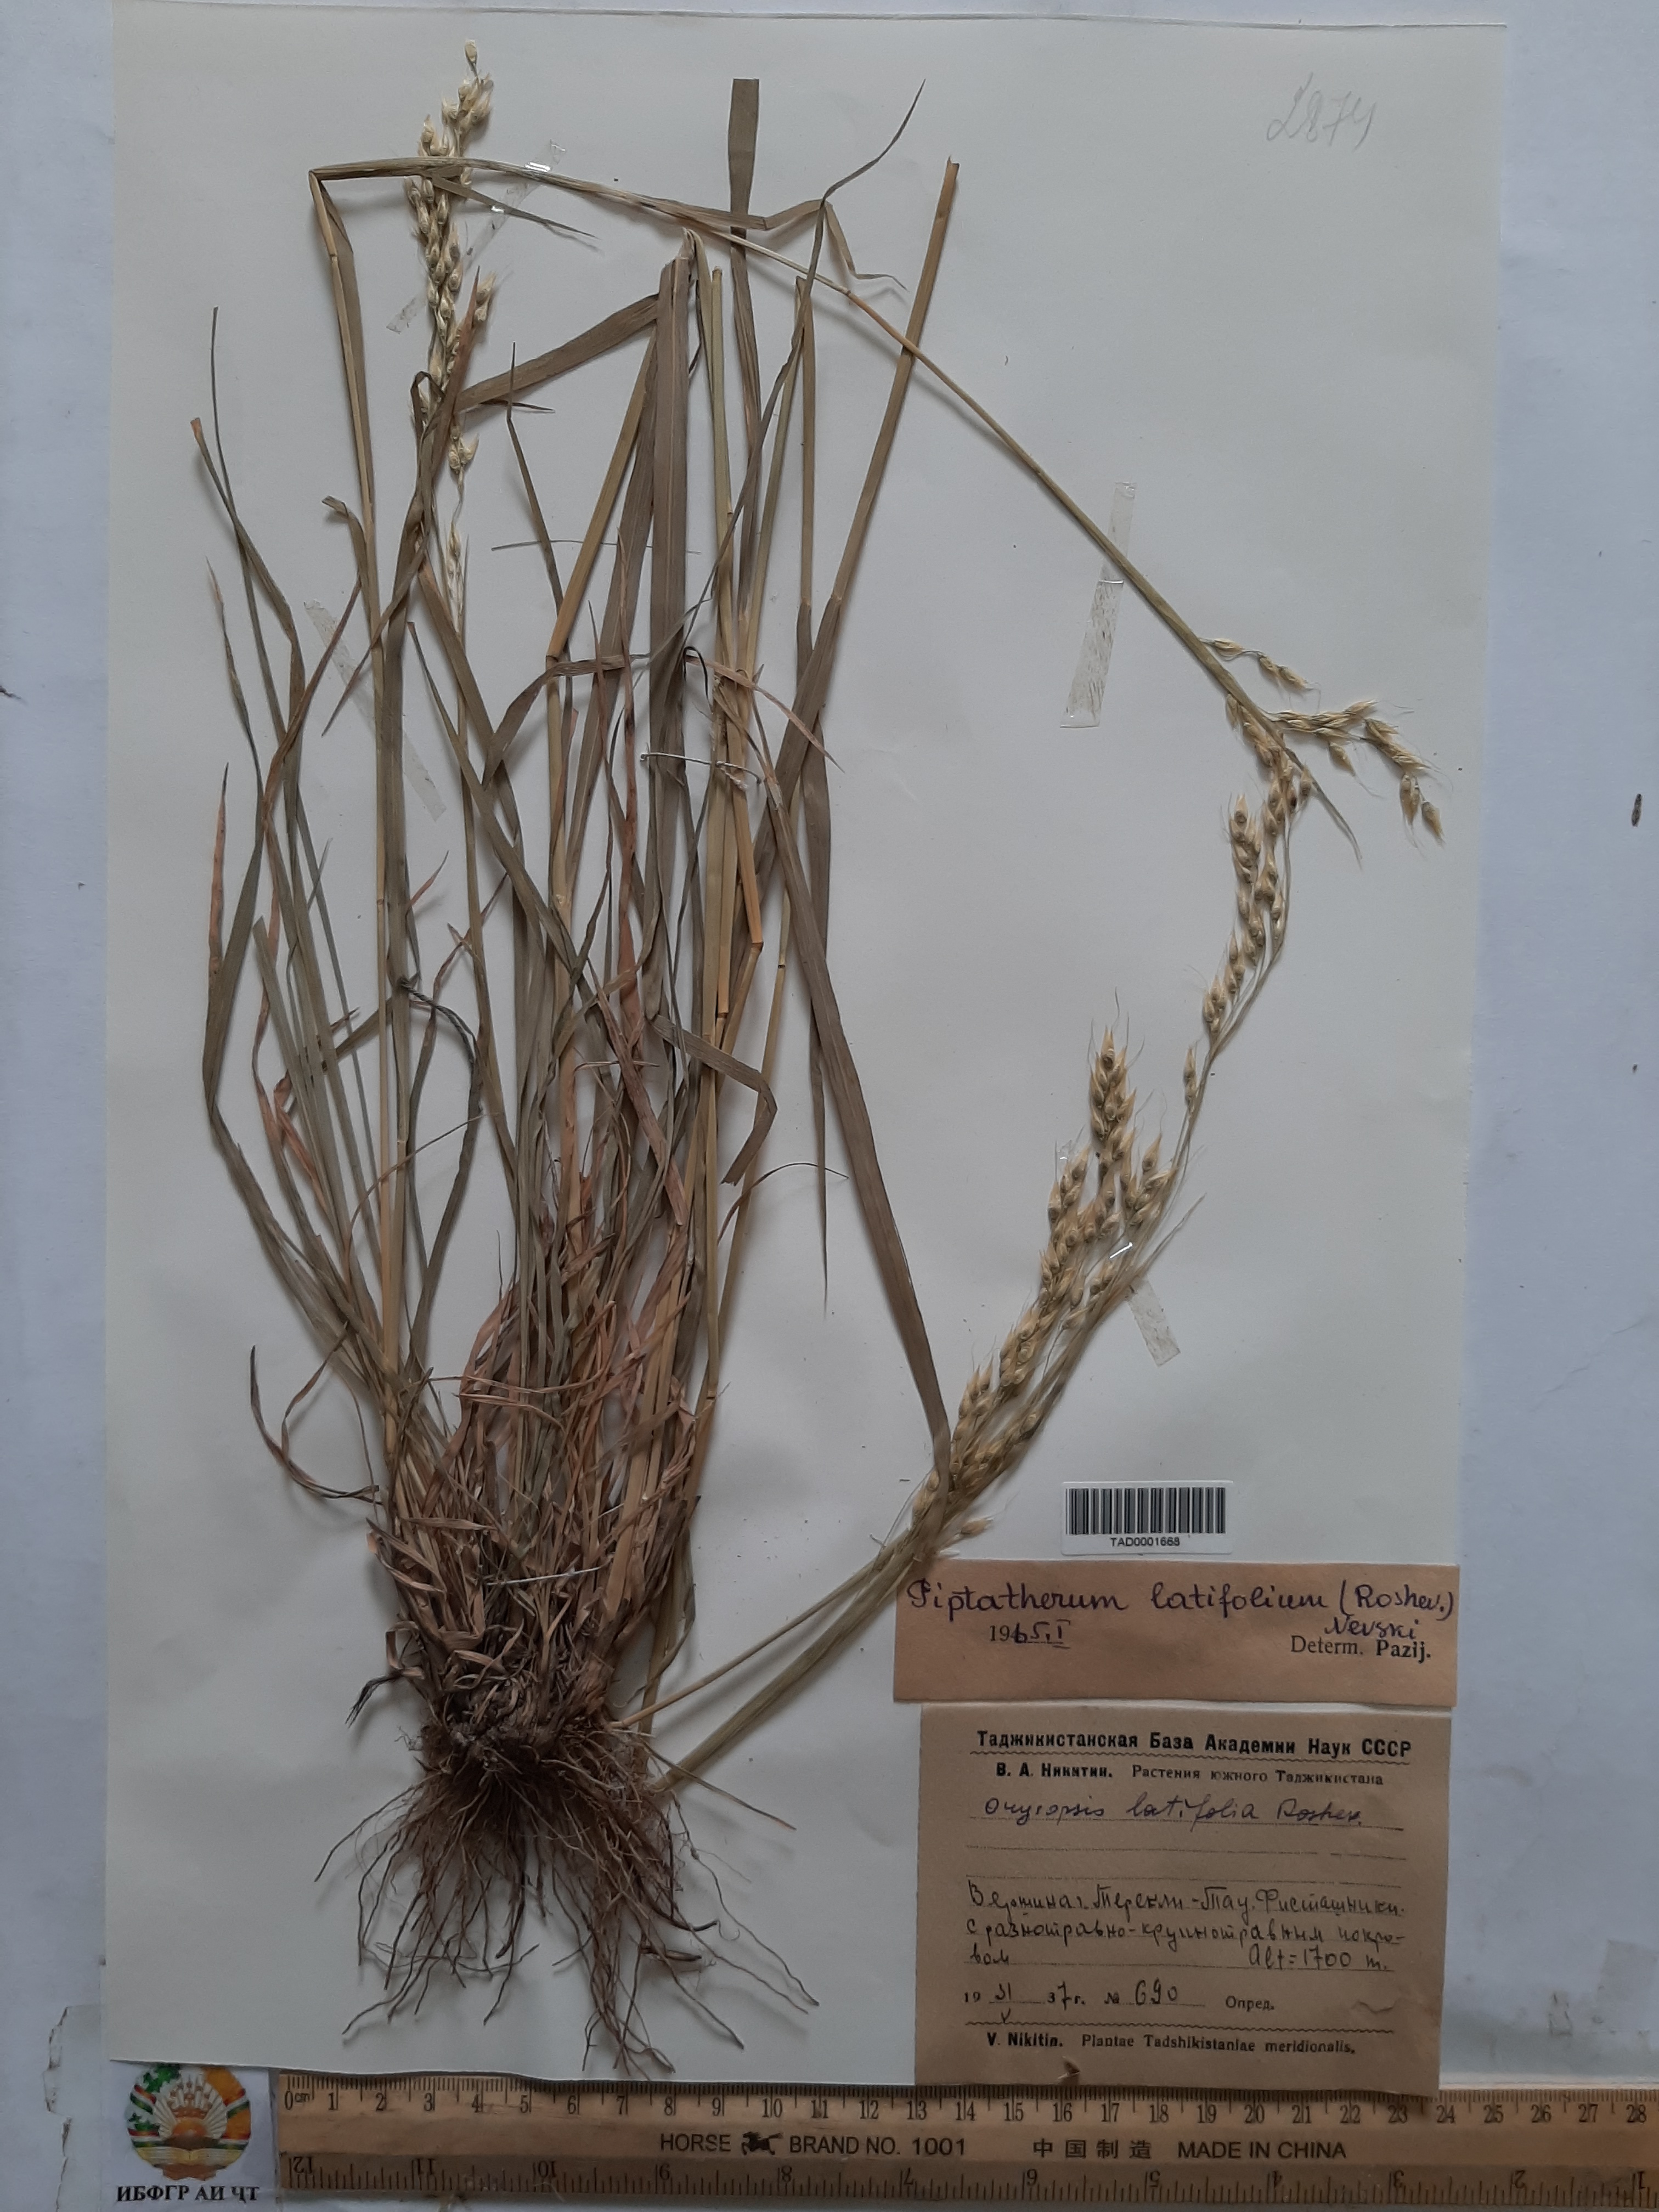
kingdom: Plantae
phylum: Tracheophyta
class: Liliopsida
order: Poales
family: Poaceae
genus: Piptatherum
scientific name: Piptatherum latifolium
